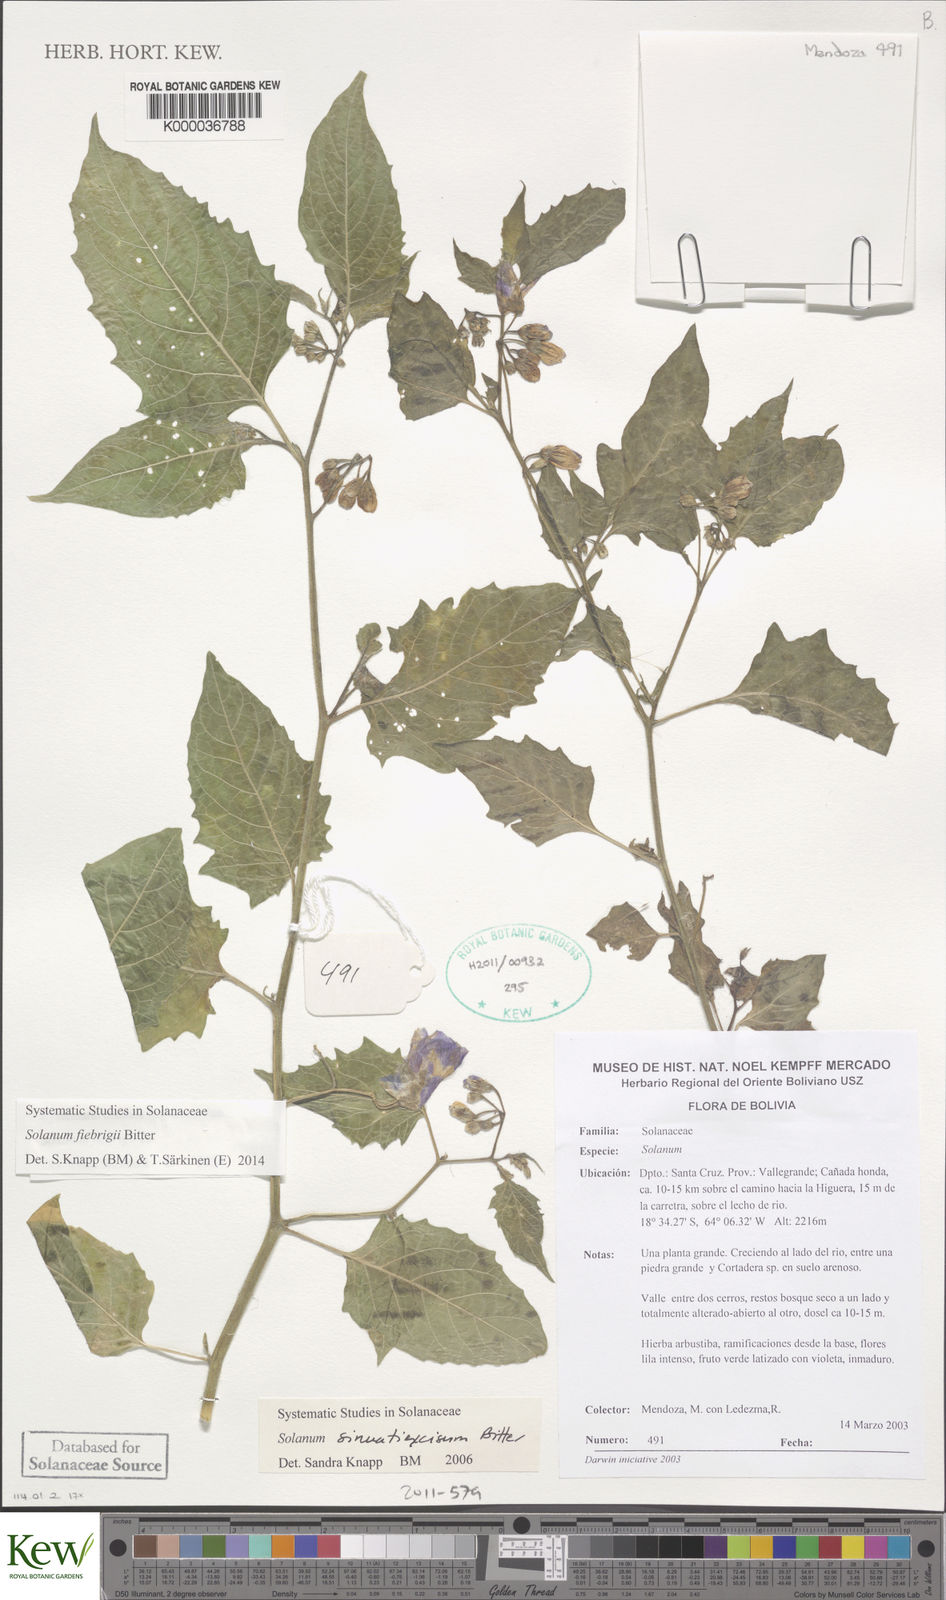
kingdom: Plantae
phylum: Tracheophyta
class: Magnoliopsida
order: Solanales
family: Solanaceae
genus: Solanum
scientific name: Solanum sinuatiexcisum
